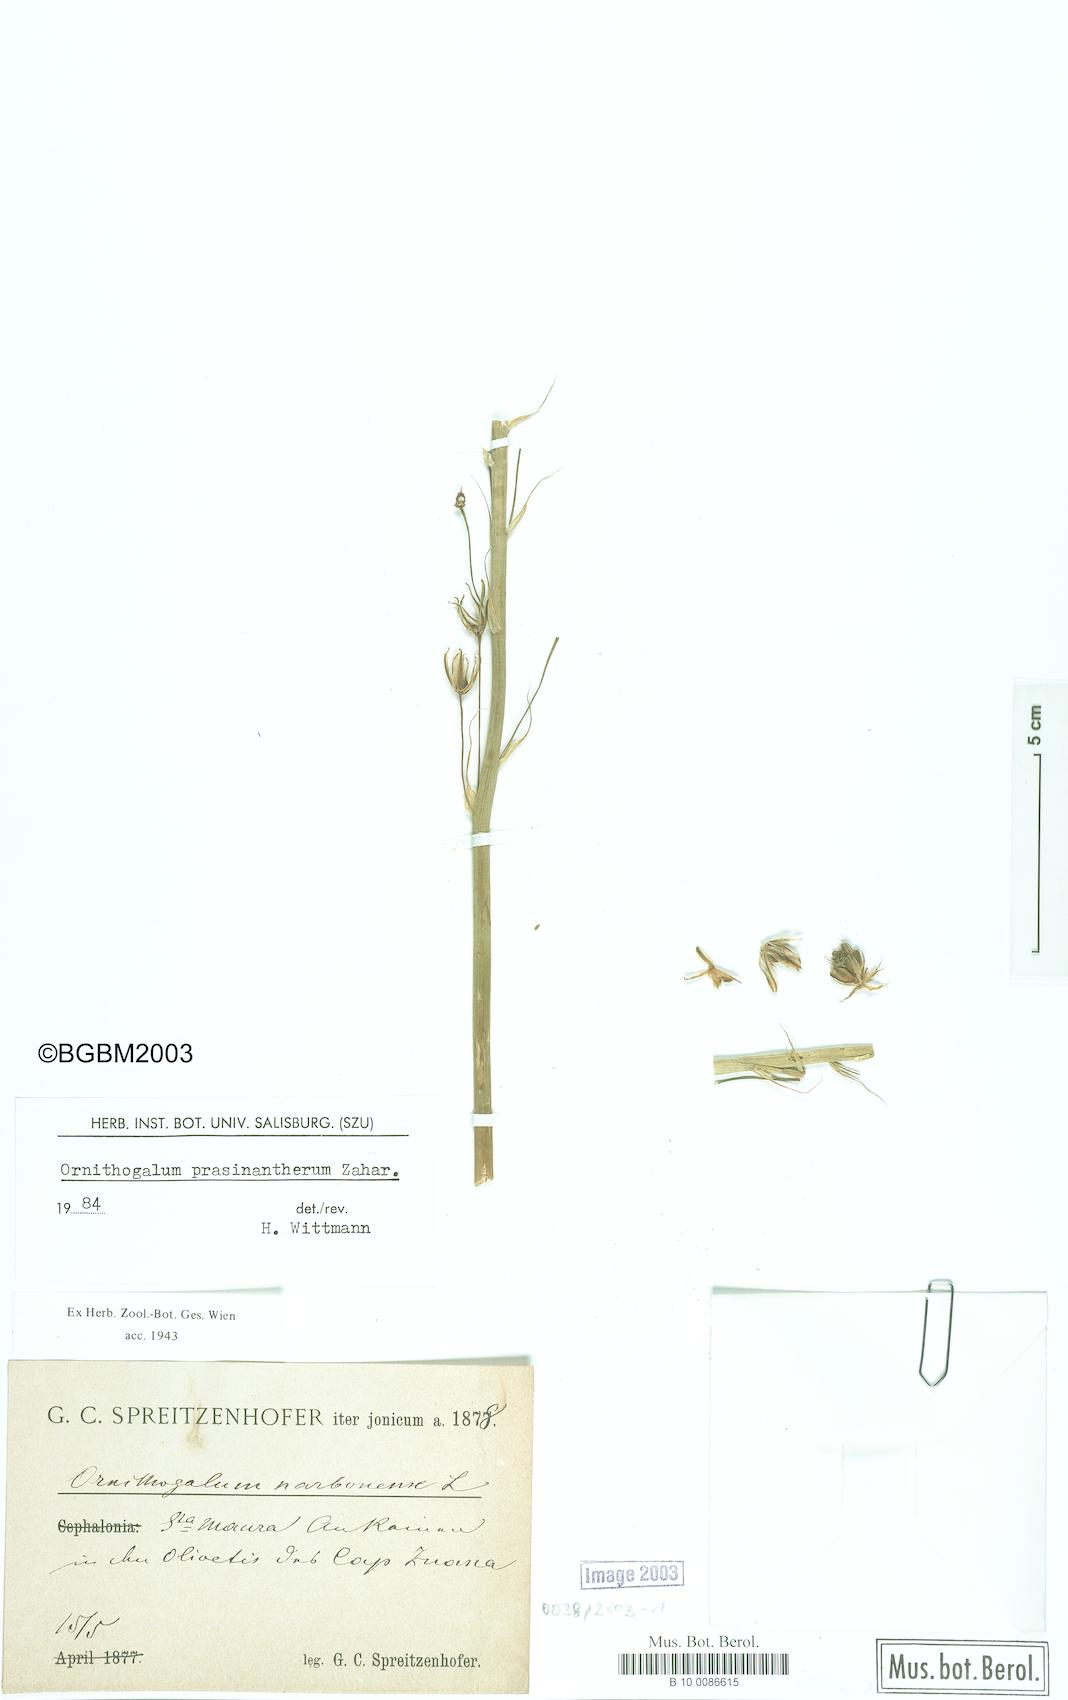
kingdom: Plantae
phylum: Tracheophyta
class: Liliopsida
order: Asparagales
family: Asparagaceae
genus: Ornithogalum
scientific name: Ornithogalum prasinantherum
